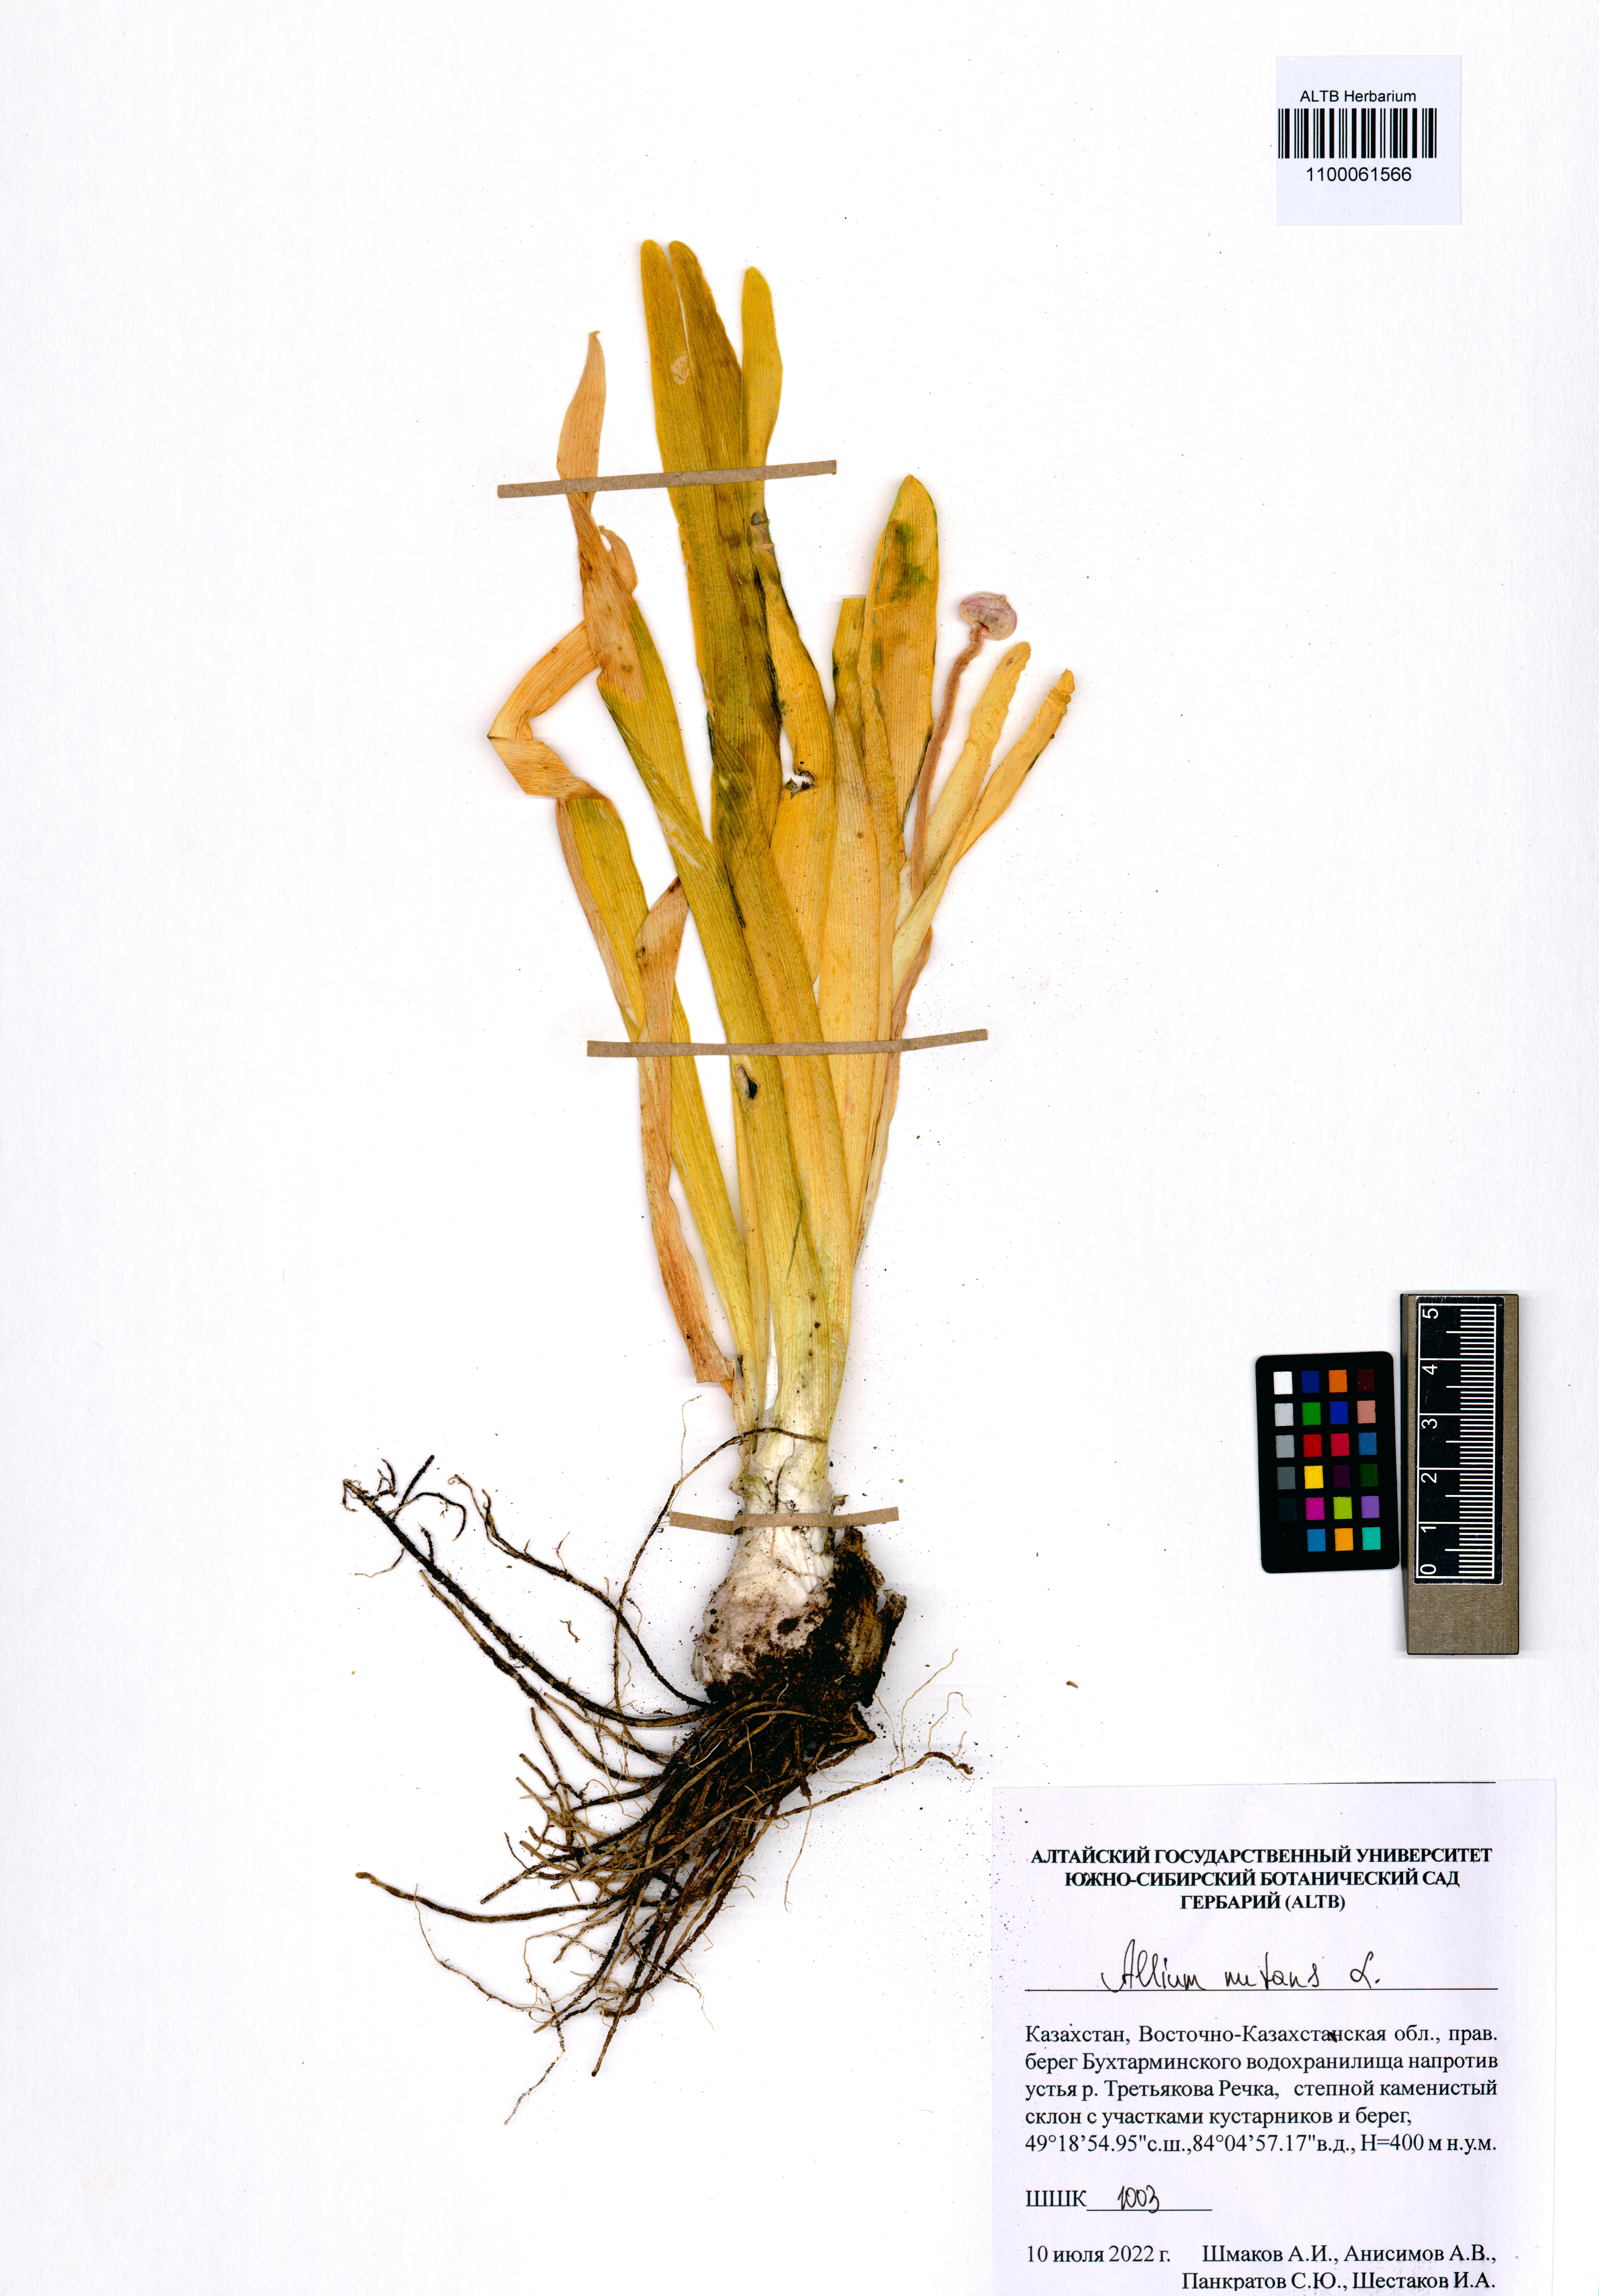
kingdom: Plantae
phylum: Tracheophyta
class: Liliopsida
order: Asparagales
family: Amaryllidaceae
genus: Allium
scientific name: Allium nutans
